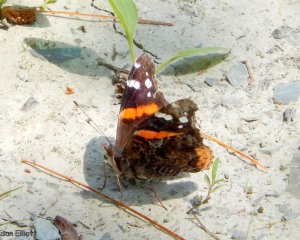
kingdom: Animalia
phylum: Arthropoda
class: Insecta
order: Lepidoptera
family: Nymphalidae
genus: Vanessa
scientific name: Vanessa atalanta
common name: Red Admiral
